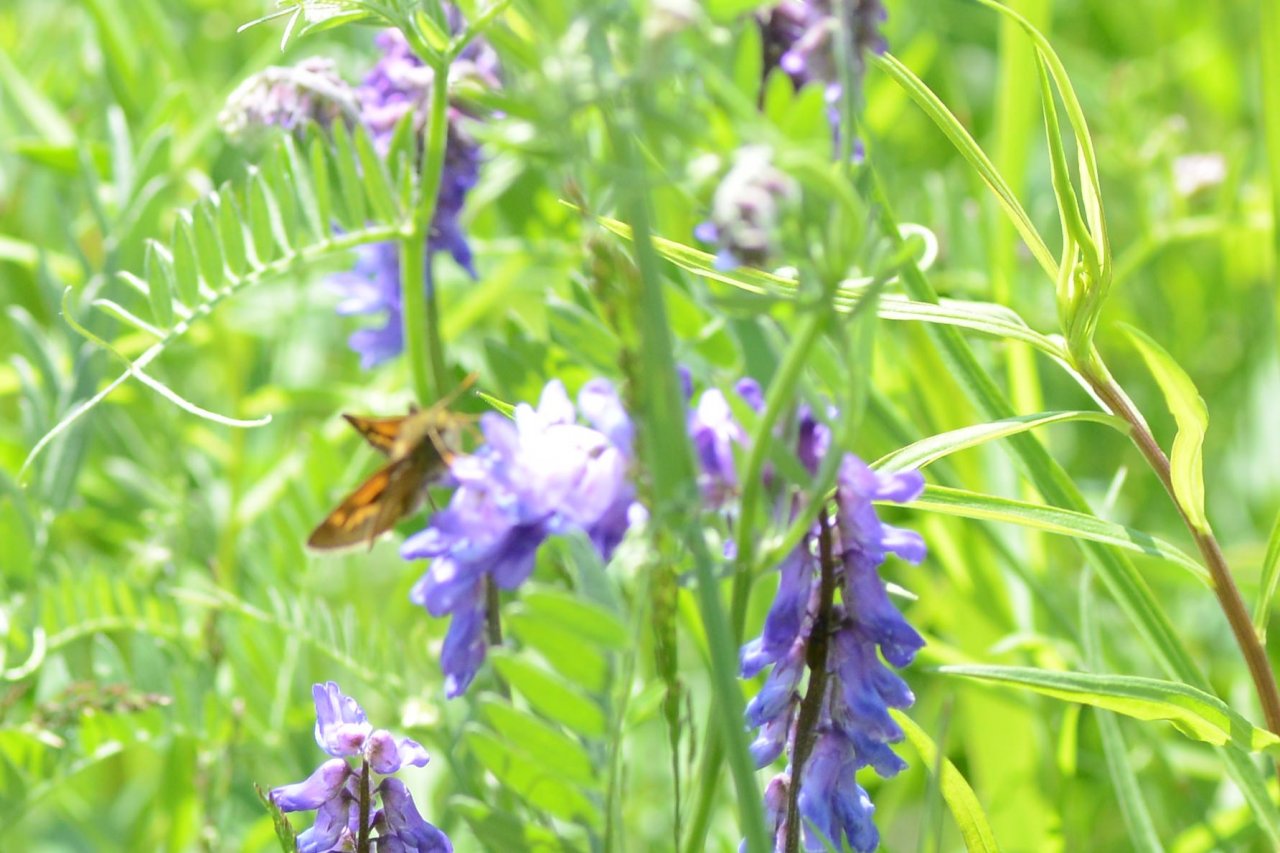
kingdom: Animalia
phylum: Arthropoda
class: Insecta
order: Lepidoptera
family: Hesperiidae
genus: Polites
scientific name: Polites
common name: Long Dash Skipper
